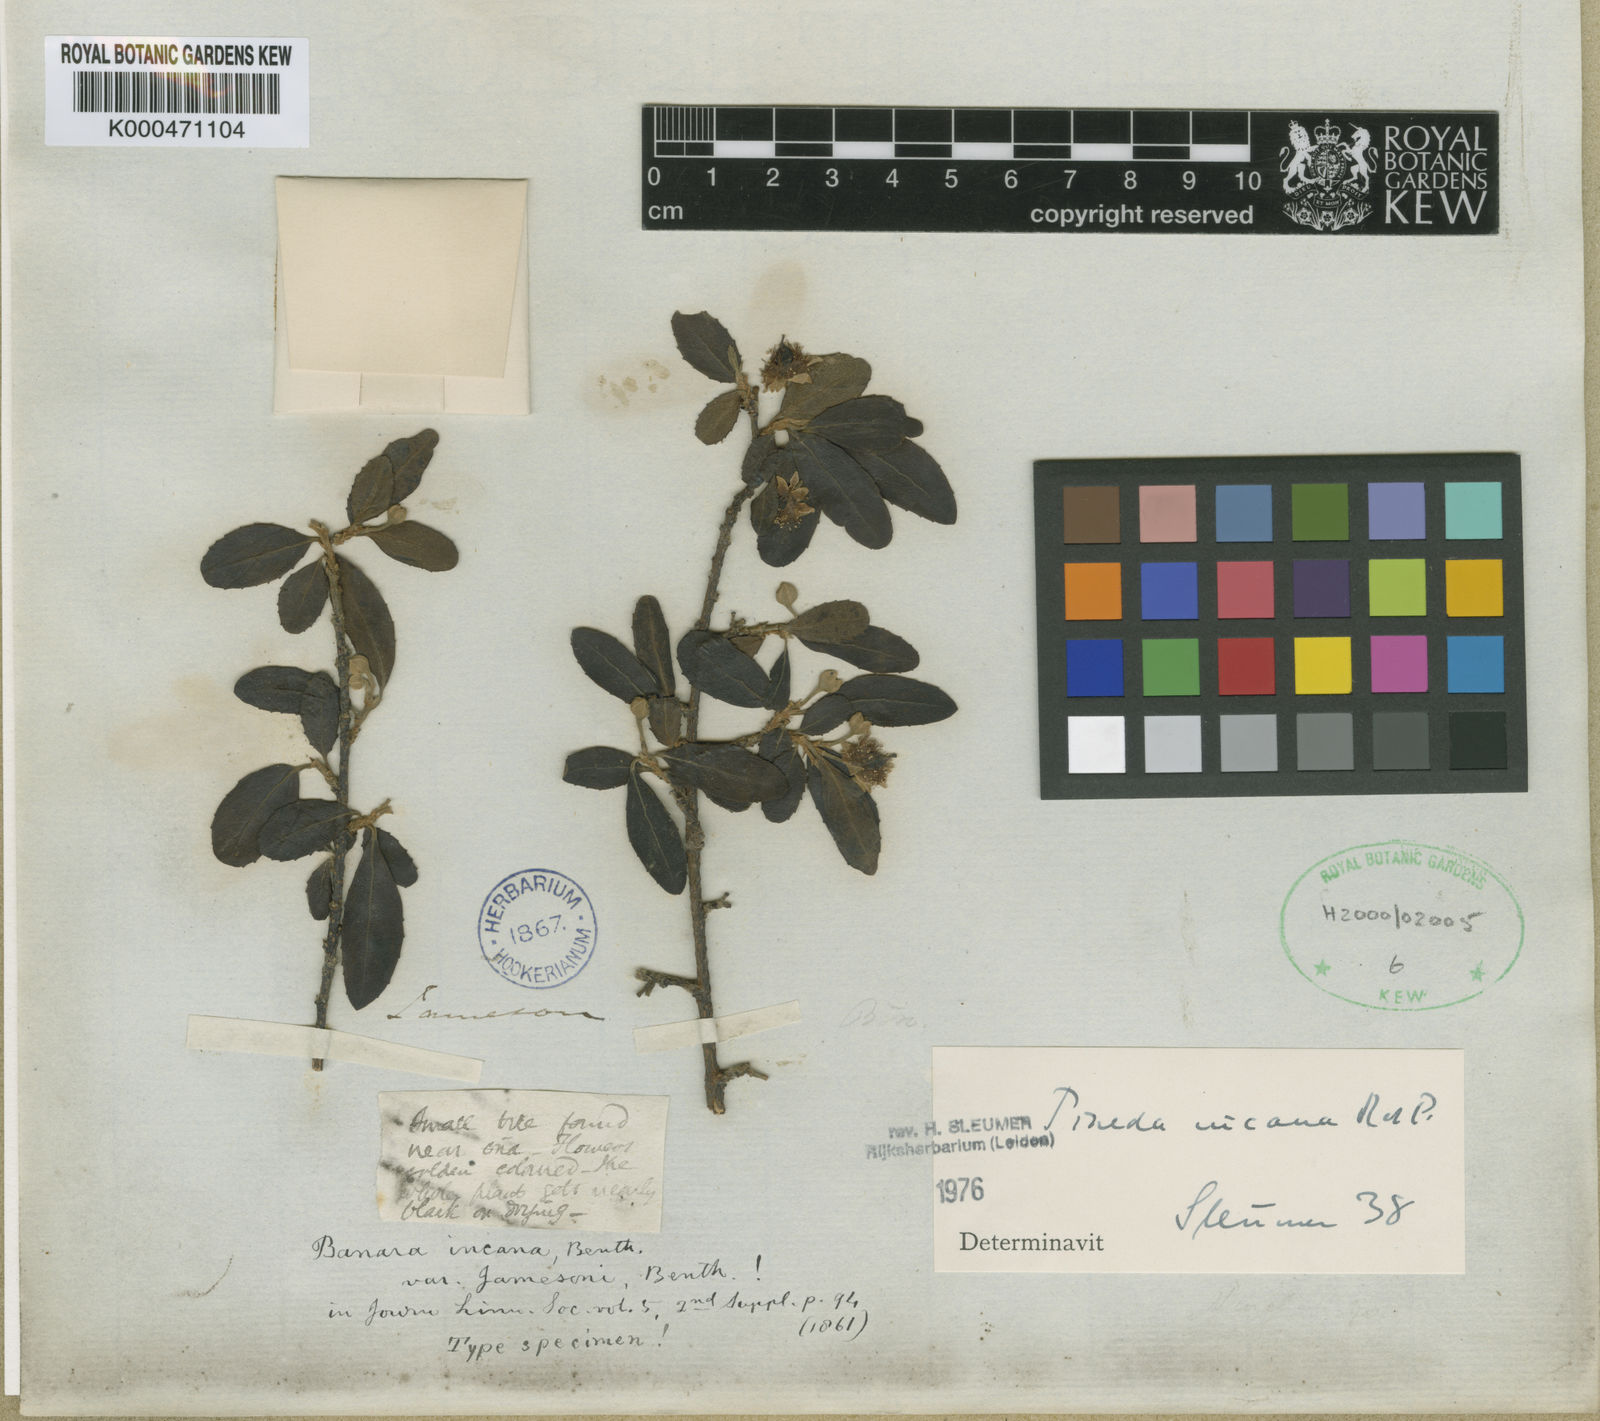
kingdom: Plantae
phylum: Tracheophyta
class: Magnoliopsida
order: Malpighiales
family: Salicaceae
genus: Pineda
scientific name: Pineda incana
